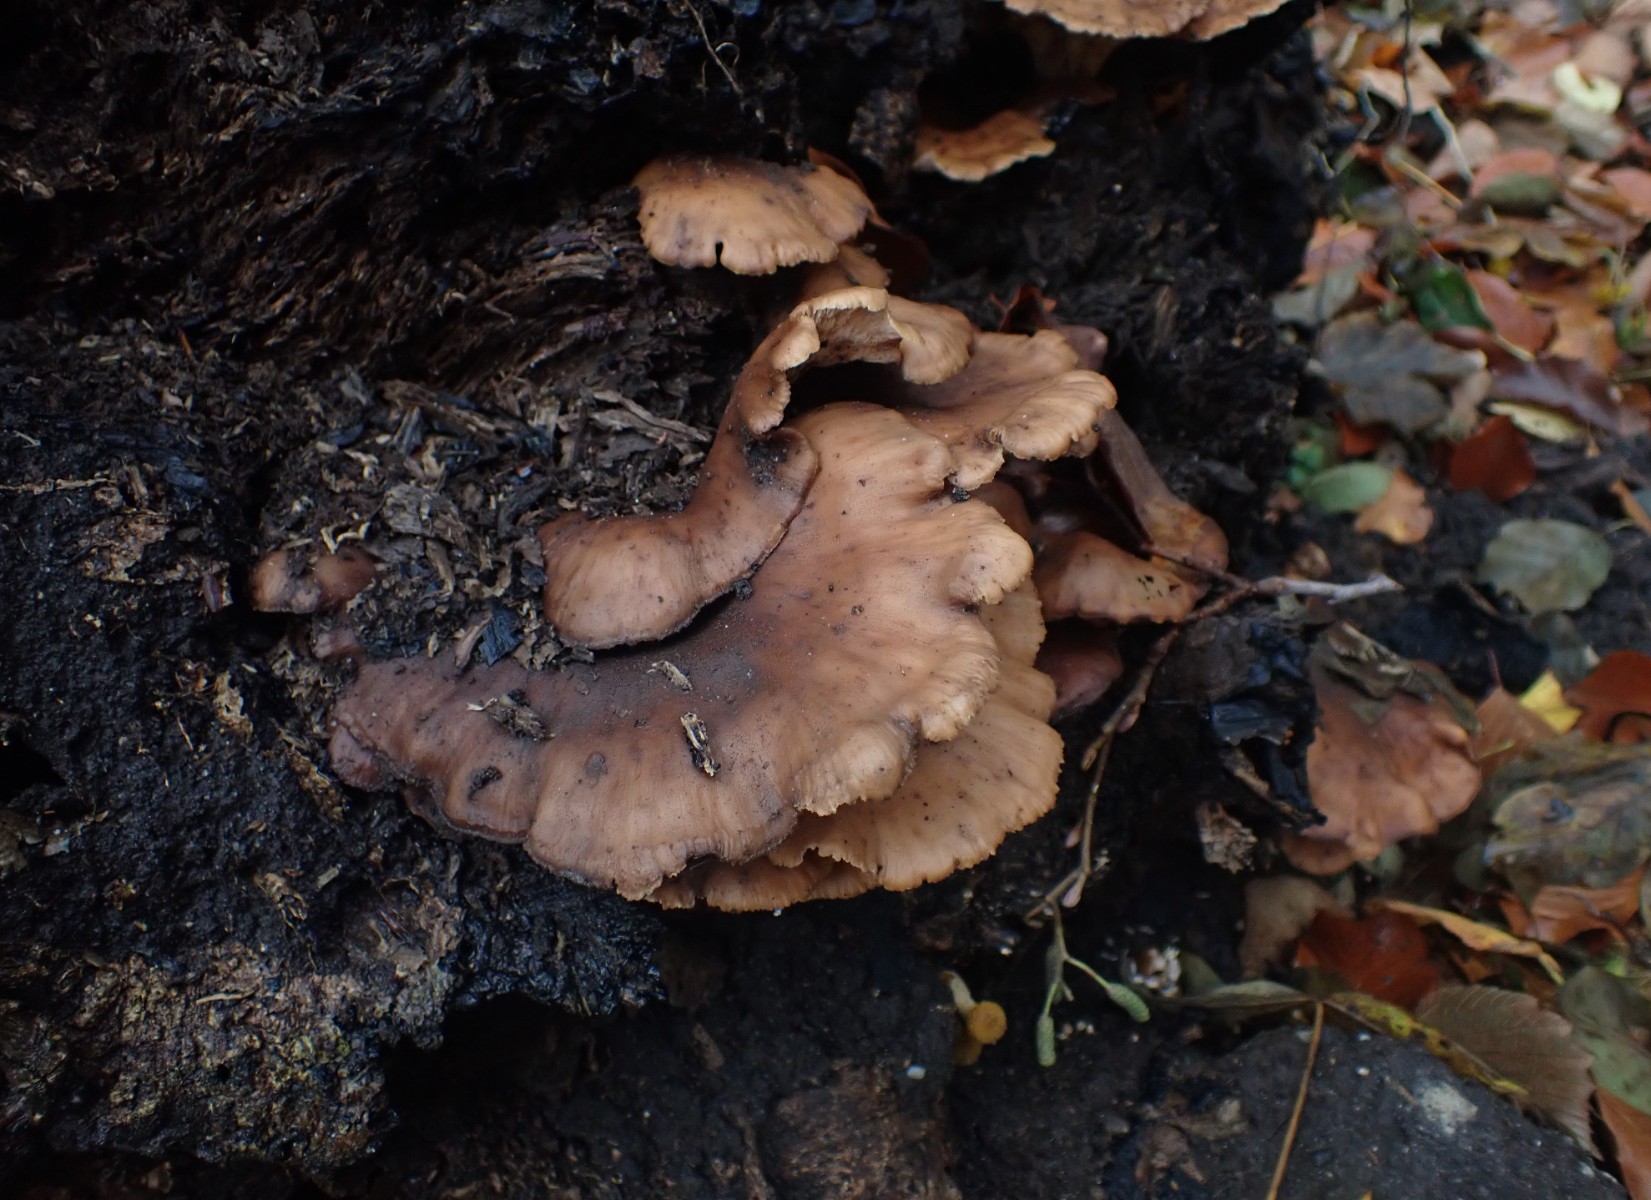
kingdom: Fungi
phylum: Basidiomycota
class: Agaricomycetes
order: Russulales
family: Auriscalpiaceae
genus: Lentinellus
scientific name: Lentinellus cochleatus
